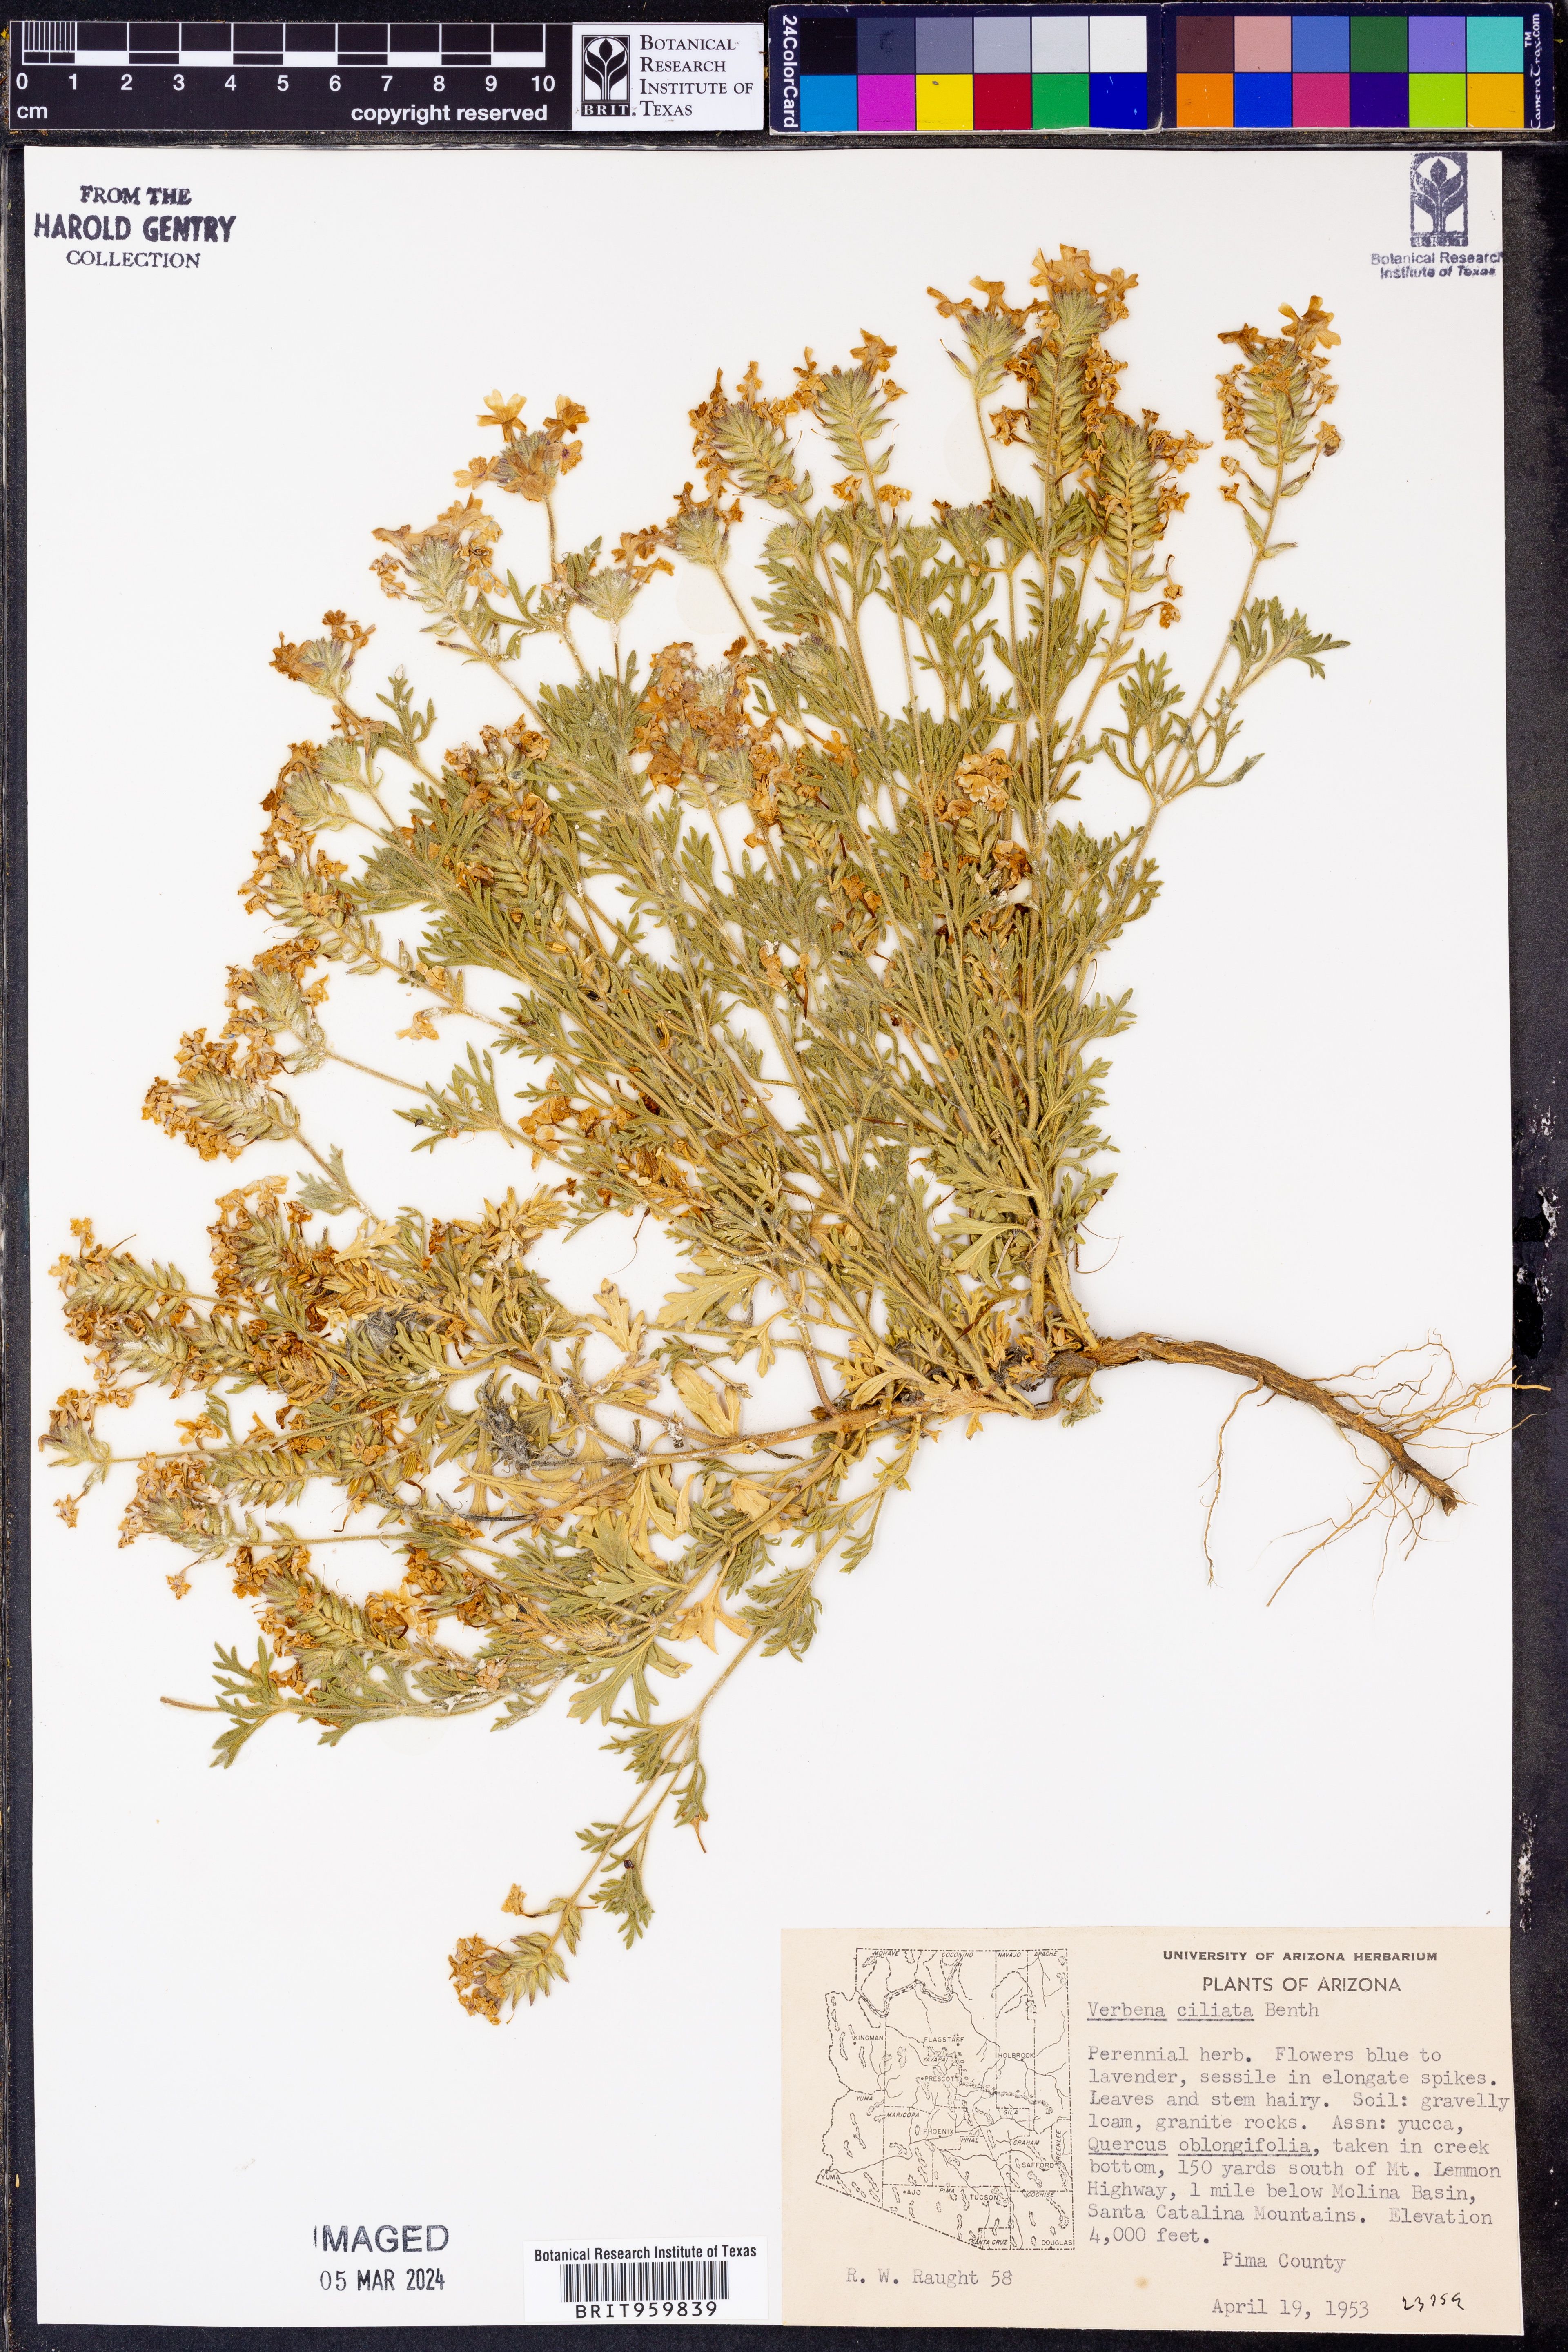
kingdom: Plantae
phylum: Tracheophyta
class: Magnoliopsida
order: Lamiales
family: Verbenaceae
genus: Verbena
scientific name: Verbena bipinnatifida
